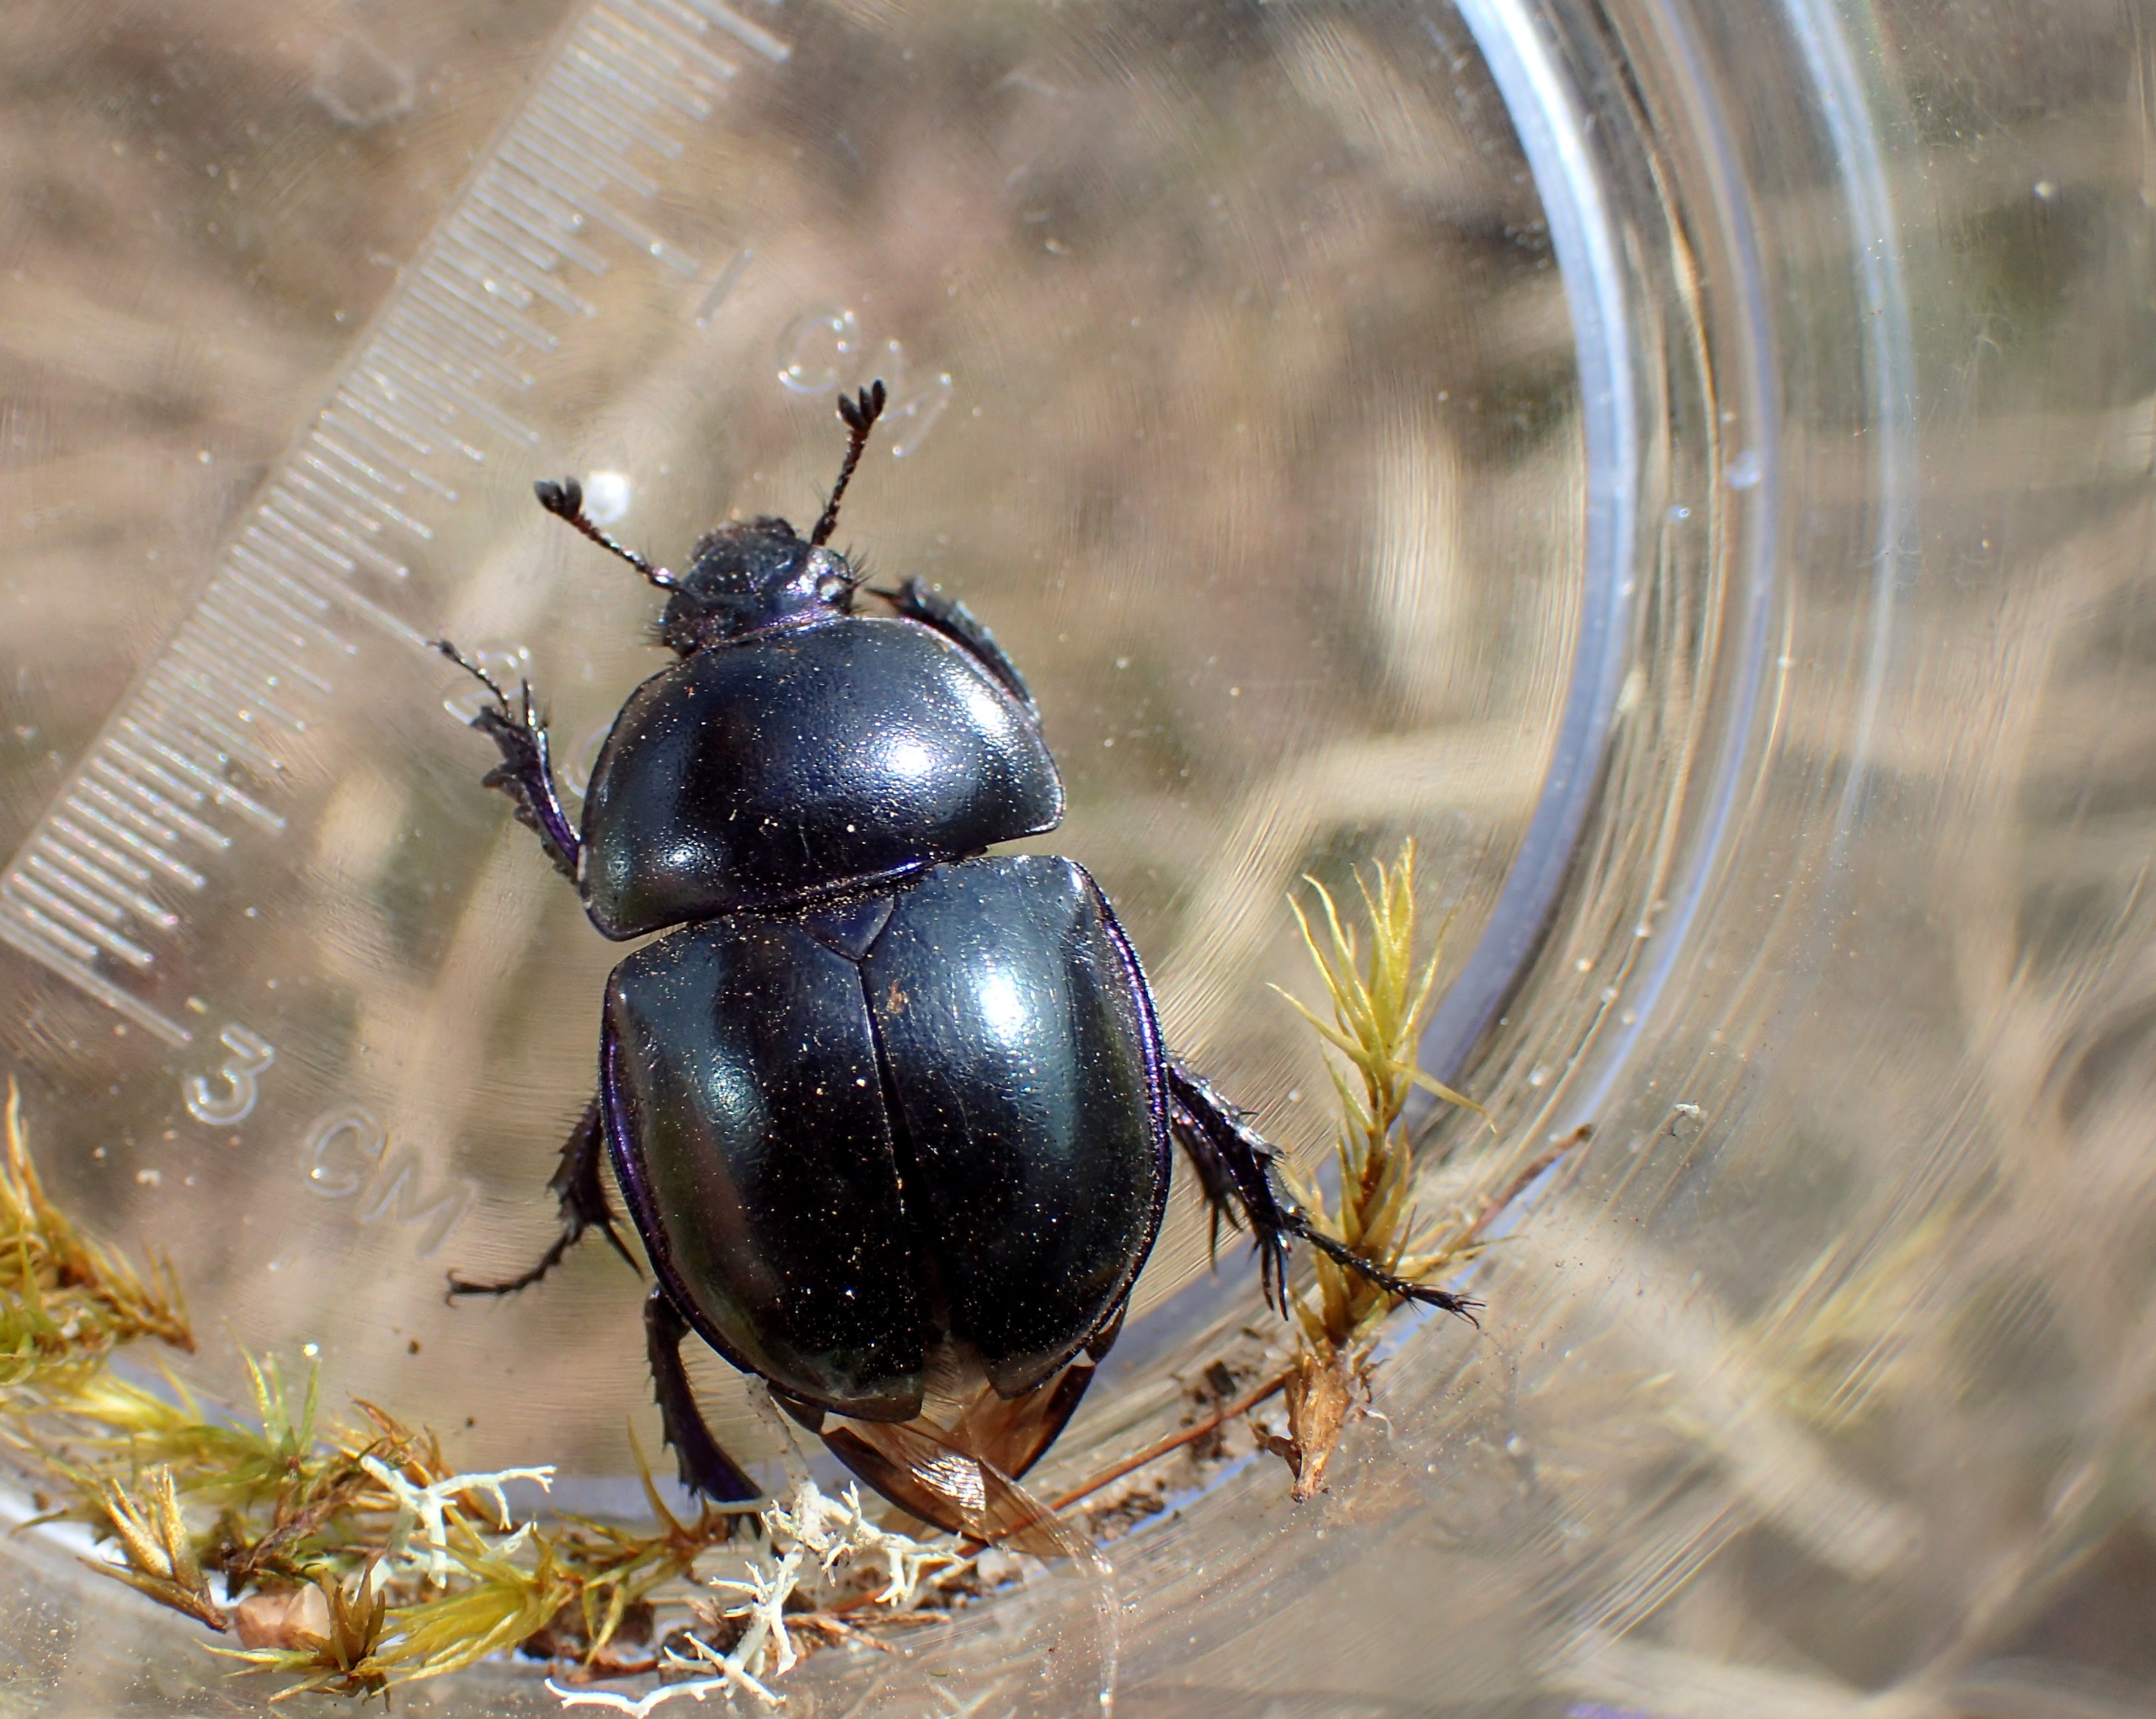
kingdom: Animalia
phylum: Arthropoda
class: Insecta
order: Coleoptera
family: Geotrupidae
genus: Trypocopris
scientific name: Trypocopris vernalis
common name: Glat skarnbasse
